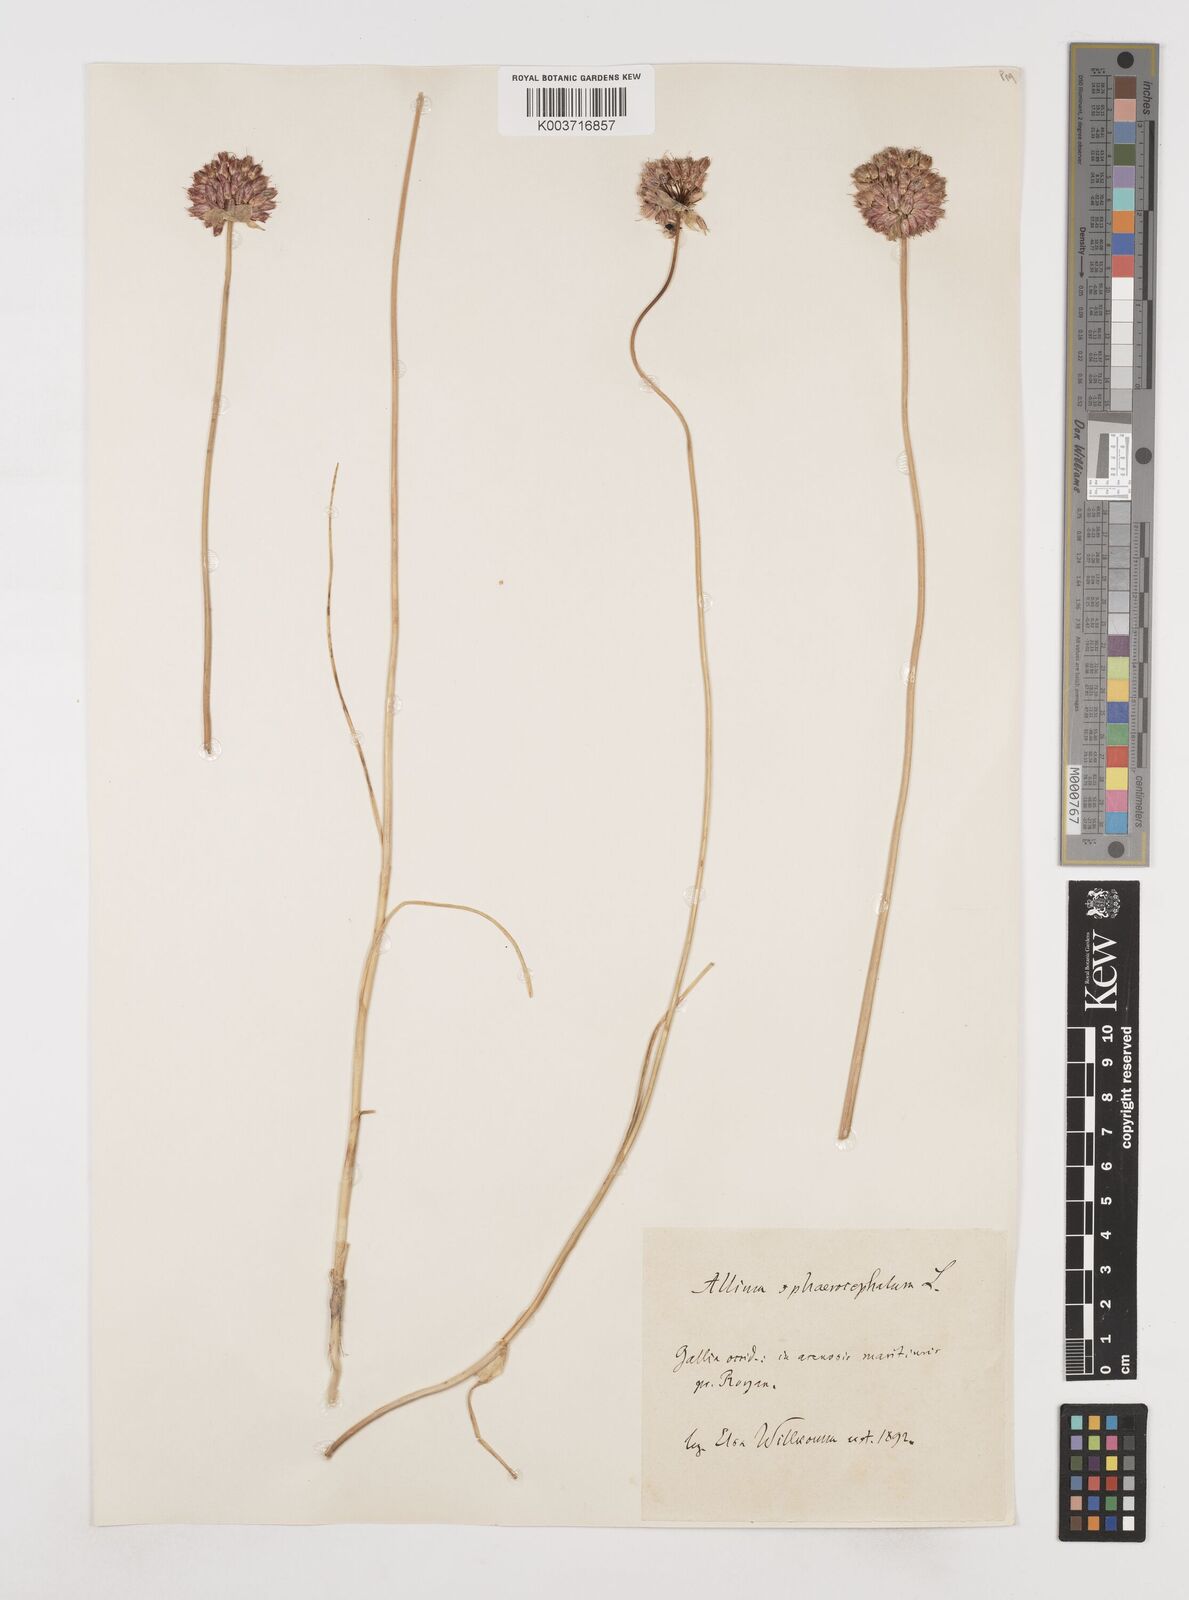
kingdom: Plantae
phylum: Tracheophyta
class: Liliopsida
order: Asparagales
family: Amaryllidaceae
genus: Allium
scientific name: Allium sphaerocephalon
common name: Round-headed leek
